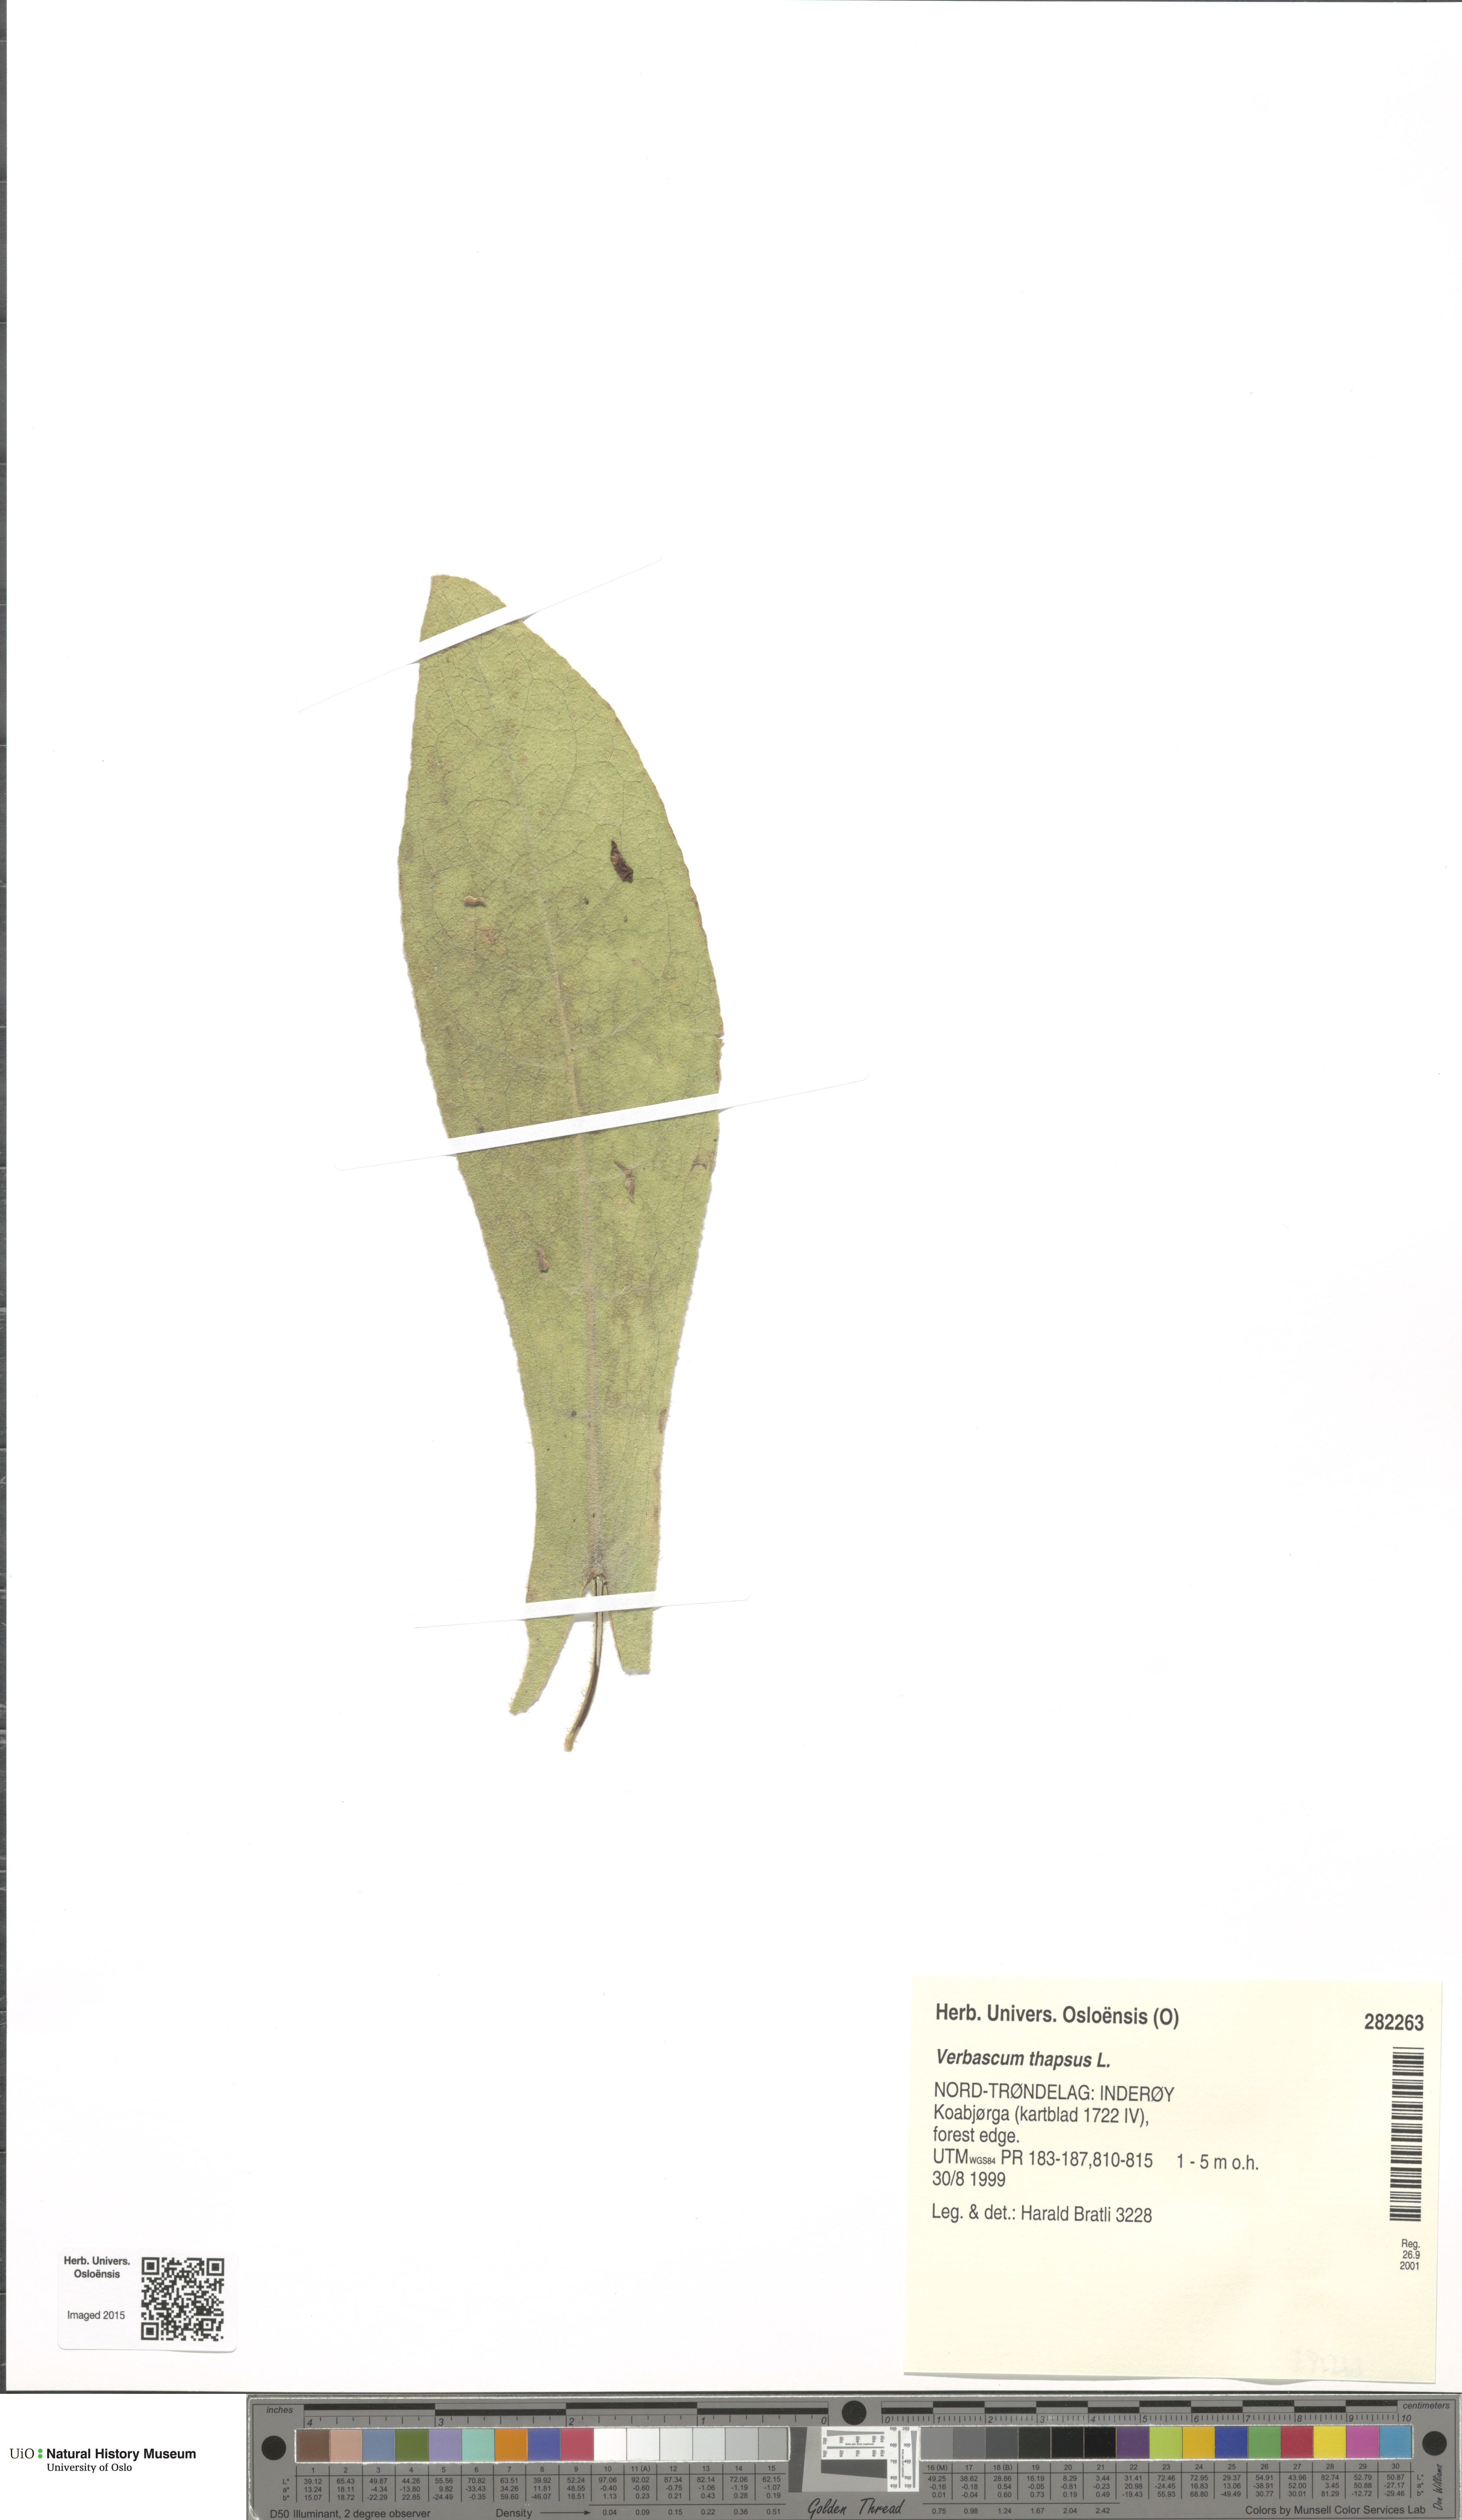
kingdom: Plantae
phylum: Tracheophyta
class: Magnoliopsida
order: Lamiales
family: Scrophulariaceae
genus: Verbascum
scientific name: Verbascum thapsus
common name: Common mullein
